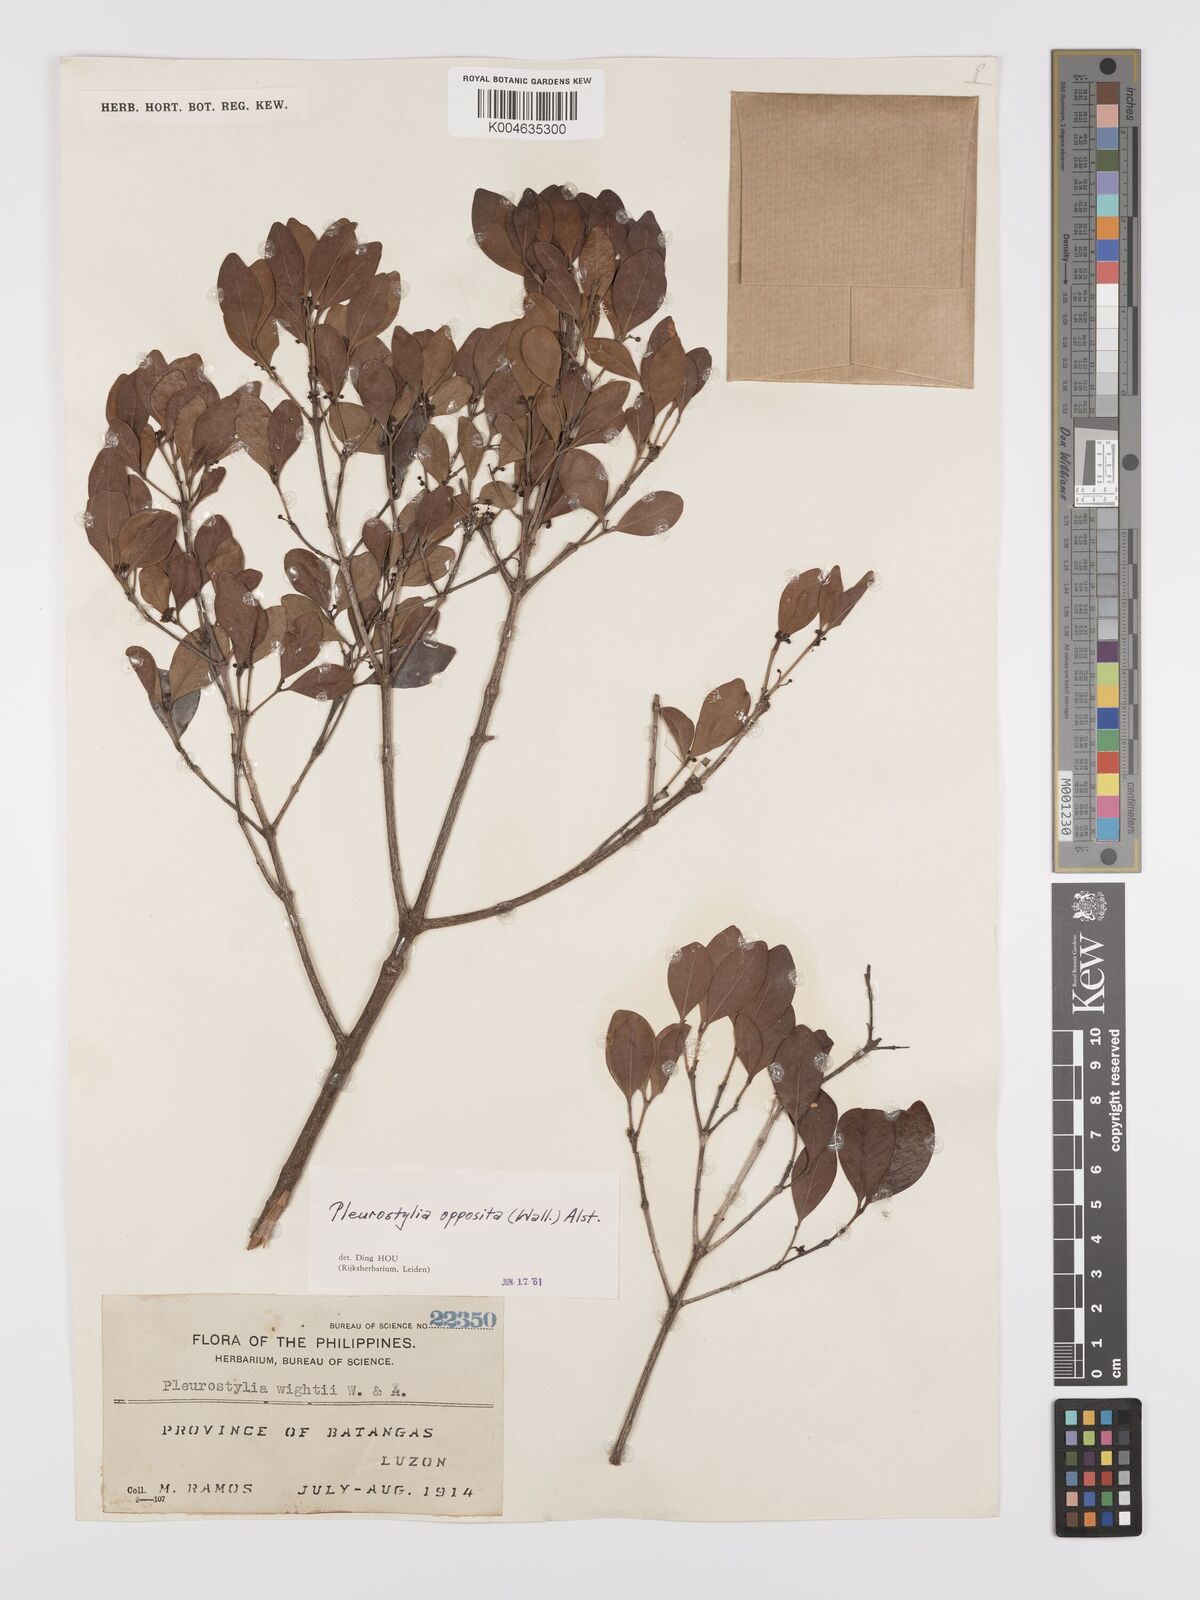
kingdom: Plantae
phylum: Tracheophyta
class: Magnoliopsida
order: Celastrales
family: Celastraceae
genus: Pleurostylia
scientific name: Pleurostylia opposita
